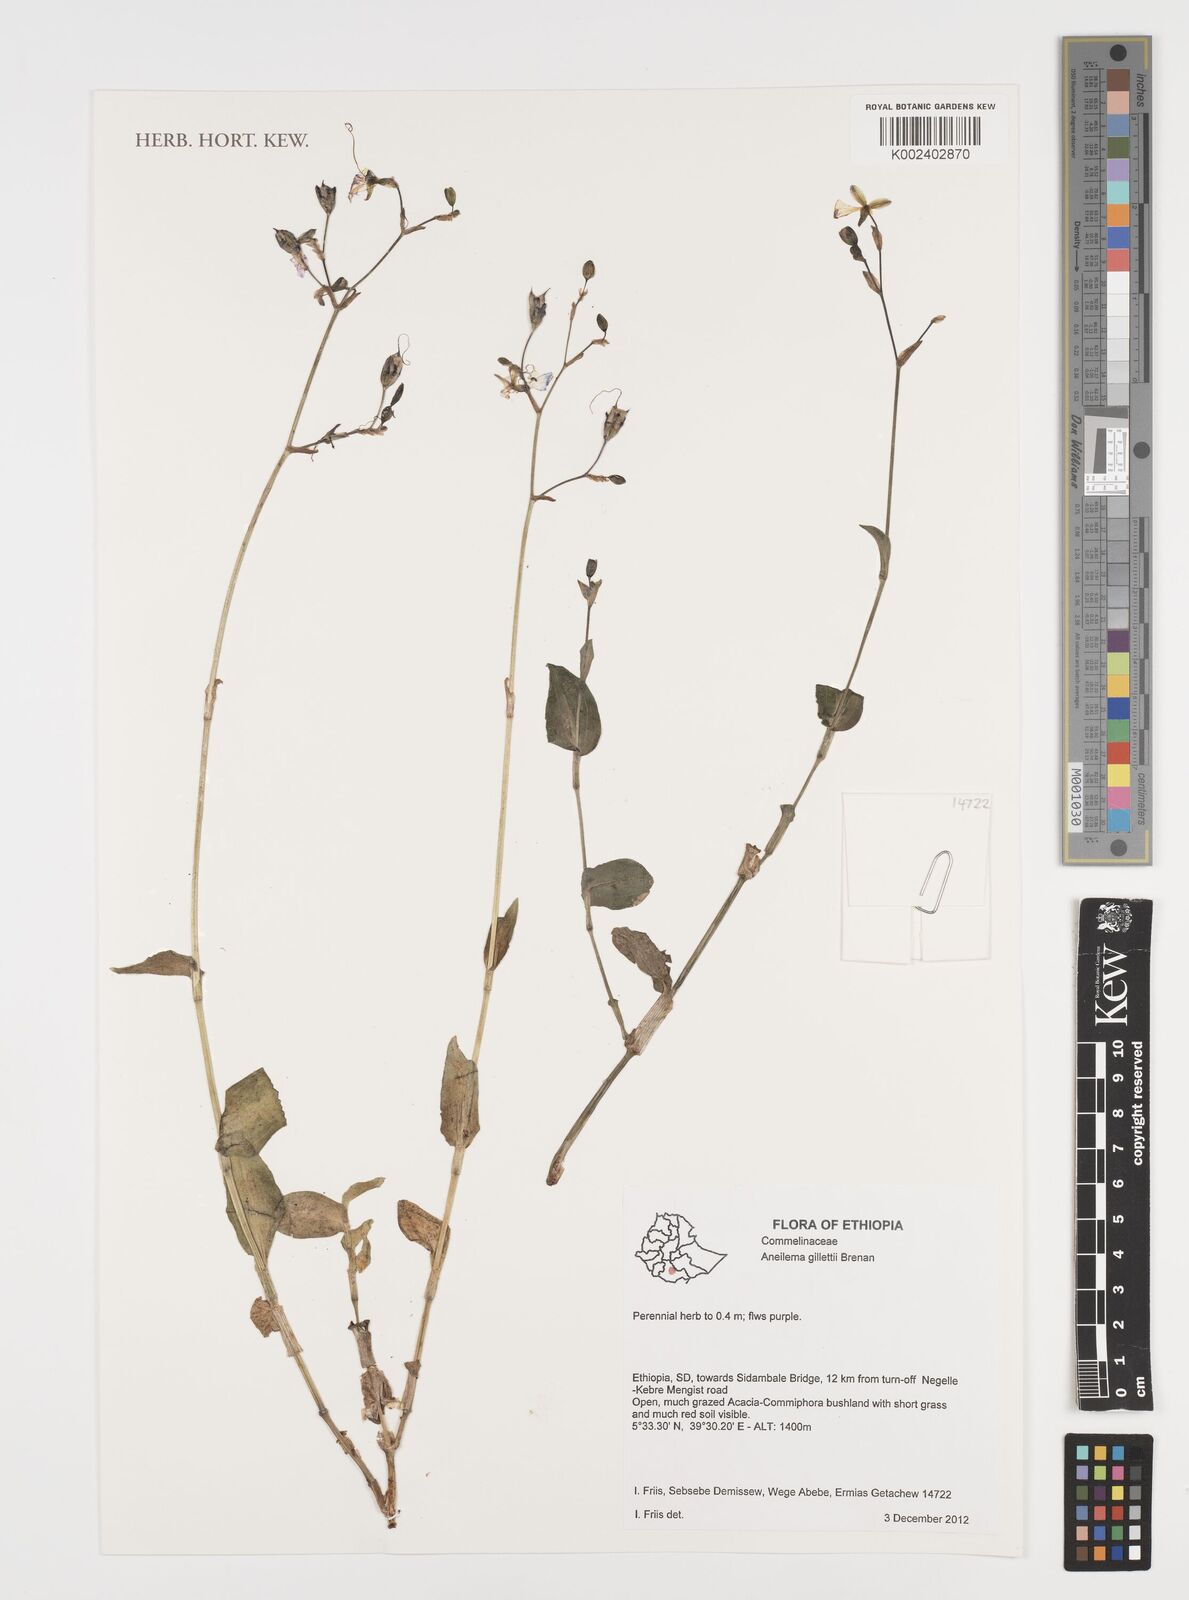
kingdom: Plantae
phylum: Tracheophyta
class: Liliopsida
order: Commelinales
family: Commelinaceae
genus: Aneilema
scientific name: Aneilema gillettii
